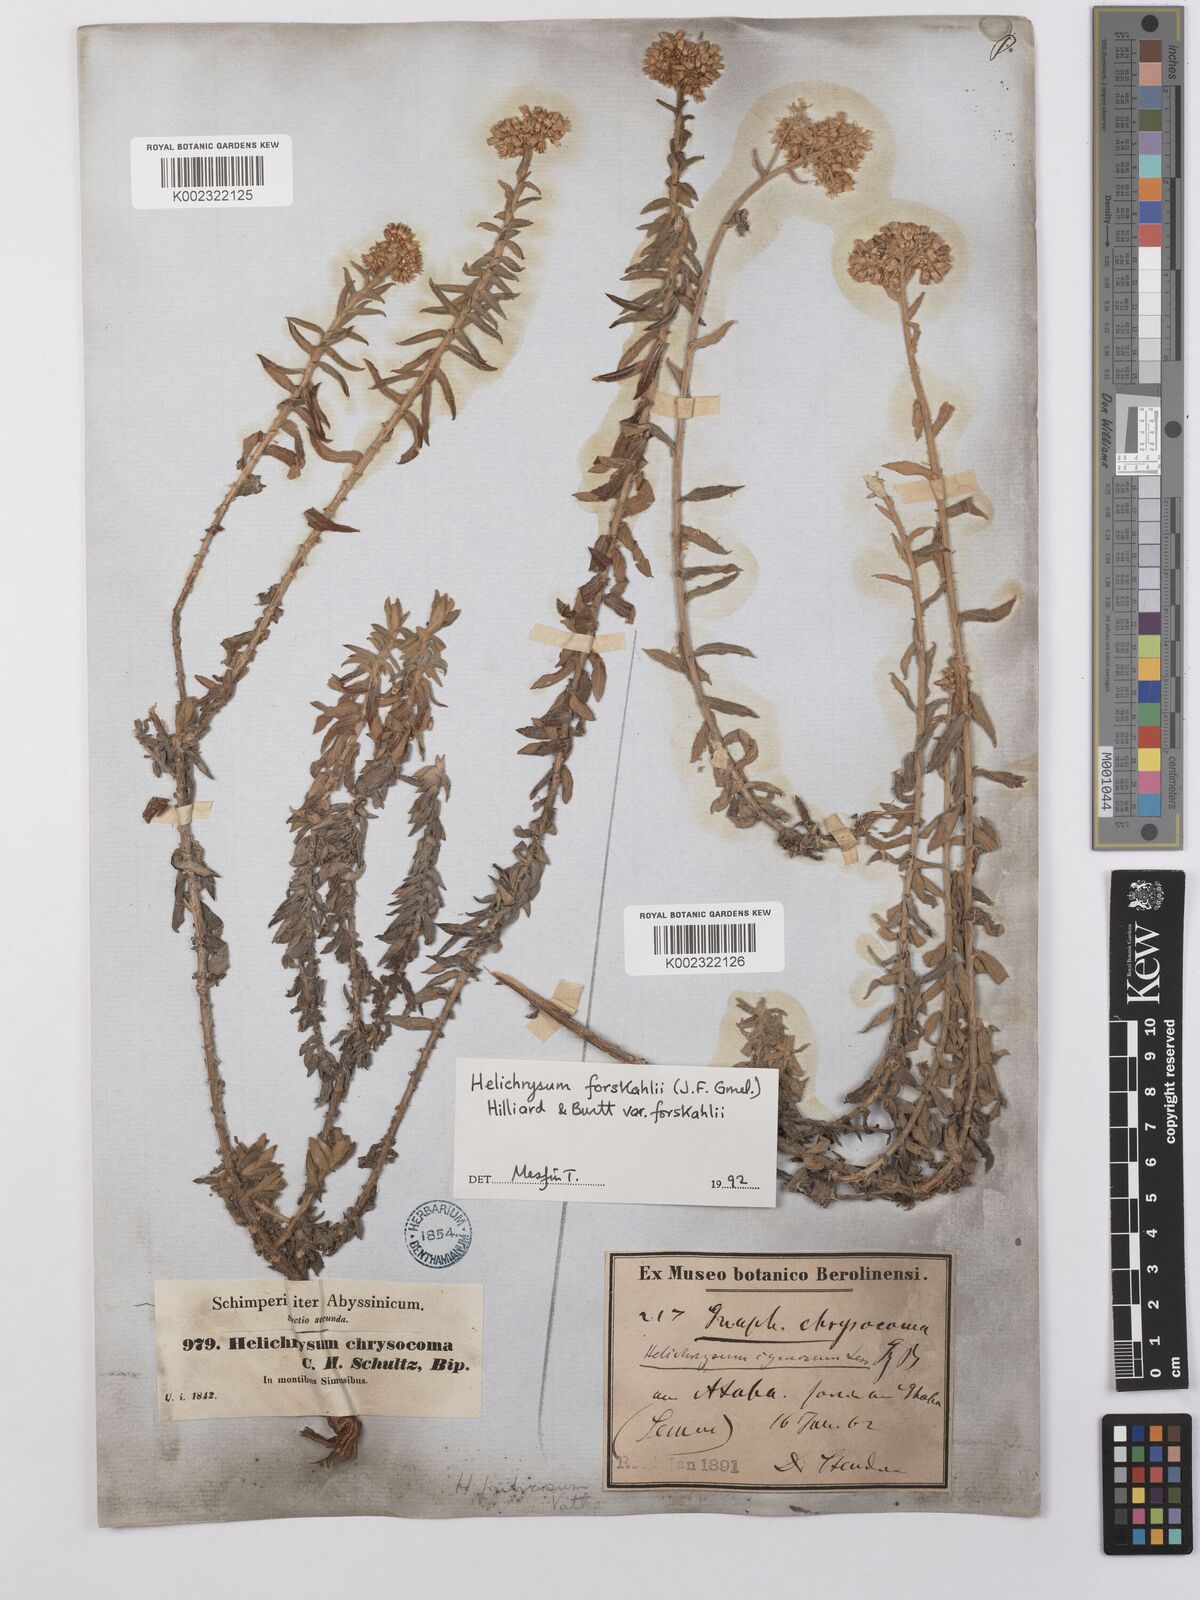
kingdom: Plantae
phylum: Tracheophyta
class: Magnoliopsida
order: Asterales
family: Asteraceae
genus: Helichrysum
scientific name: Helichrysum forskahlii
